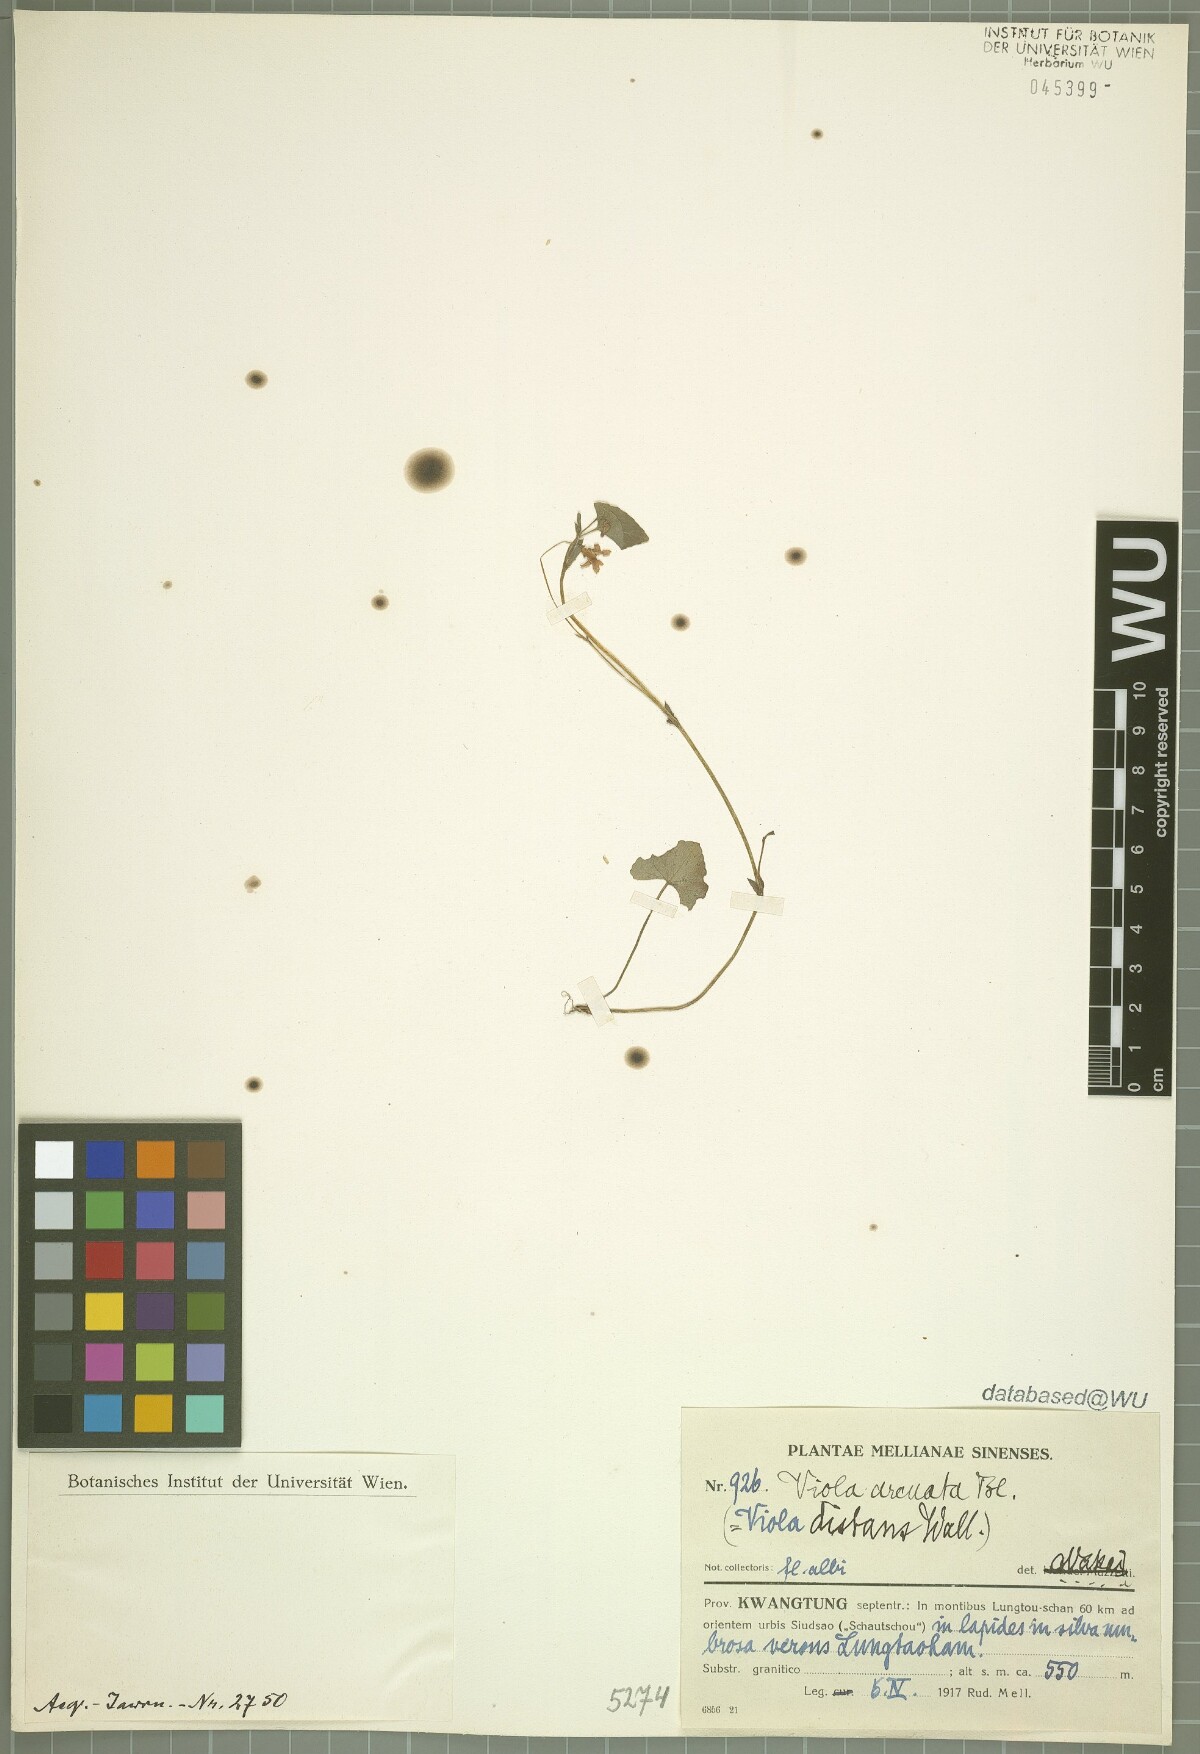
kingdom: Plantae
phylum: Tracheophyta
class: Magnoliopsida
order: Malpighiales
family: Violaceae
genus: Viola
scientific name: Viola hamiltoniana
